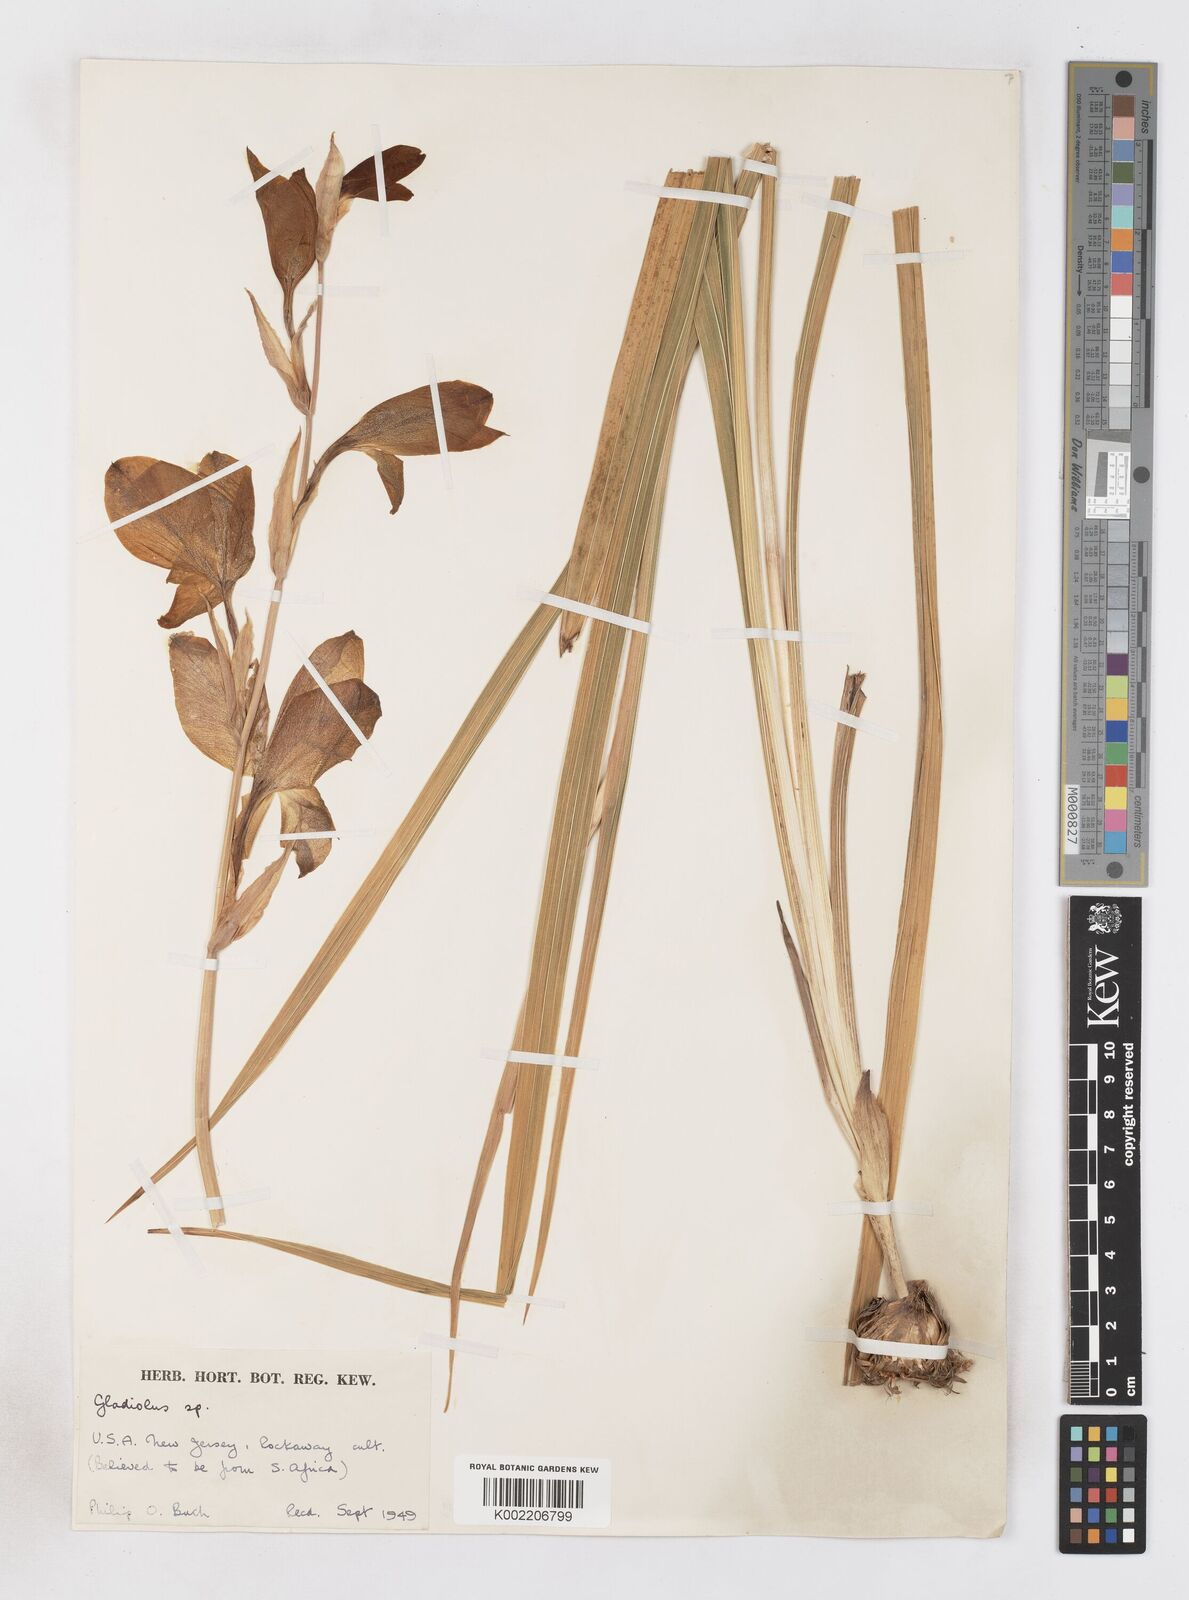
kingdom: Plantae
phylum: Tracheophyta
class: Liliopsida
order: Asparagales
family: Iridaceae
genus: Gladiolus
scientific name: Gladiolus
